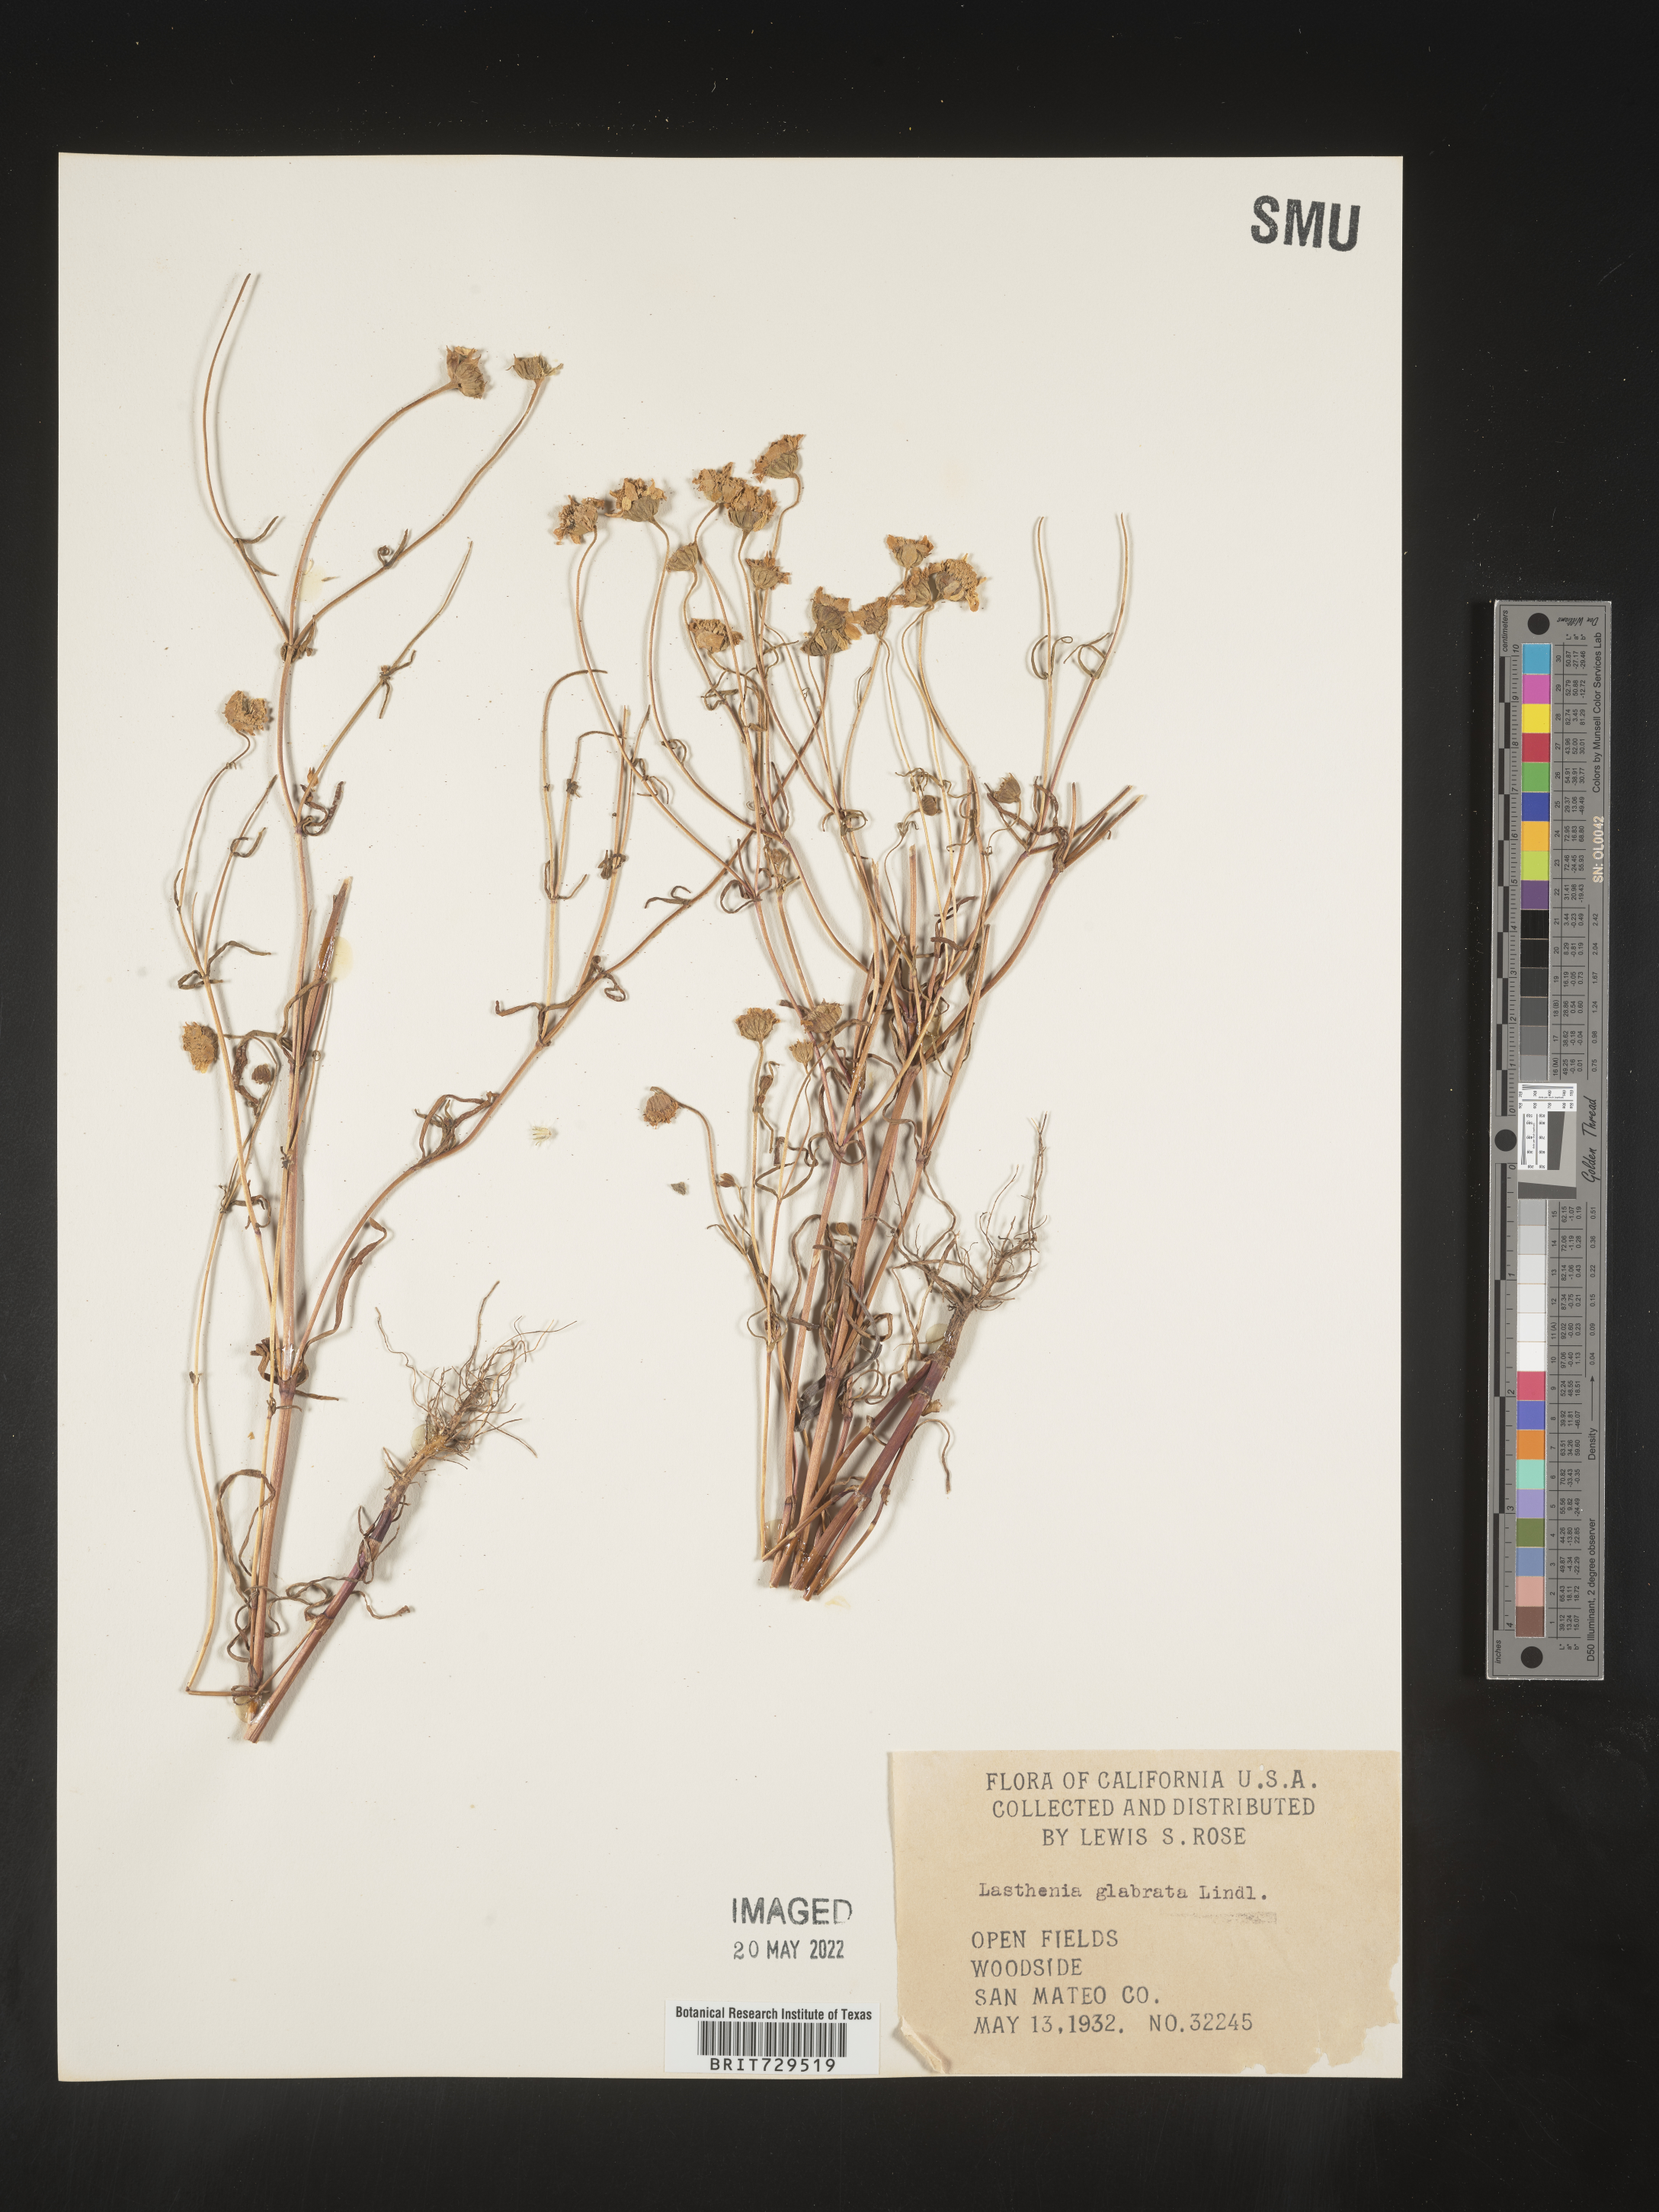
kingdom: Plantae
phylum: Tracheophyta
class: Magnoliopsida
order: Asterales
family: Asteraceae
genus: Lasthenia
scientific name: Lasthenia
